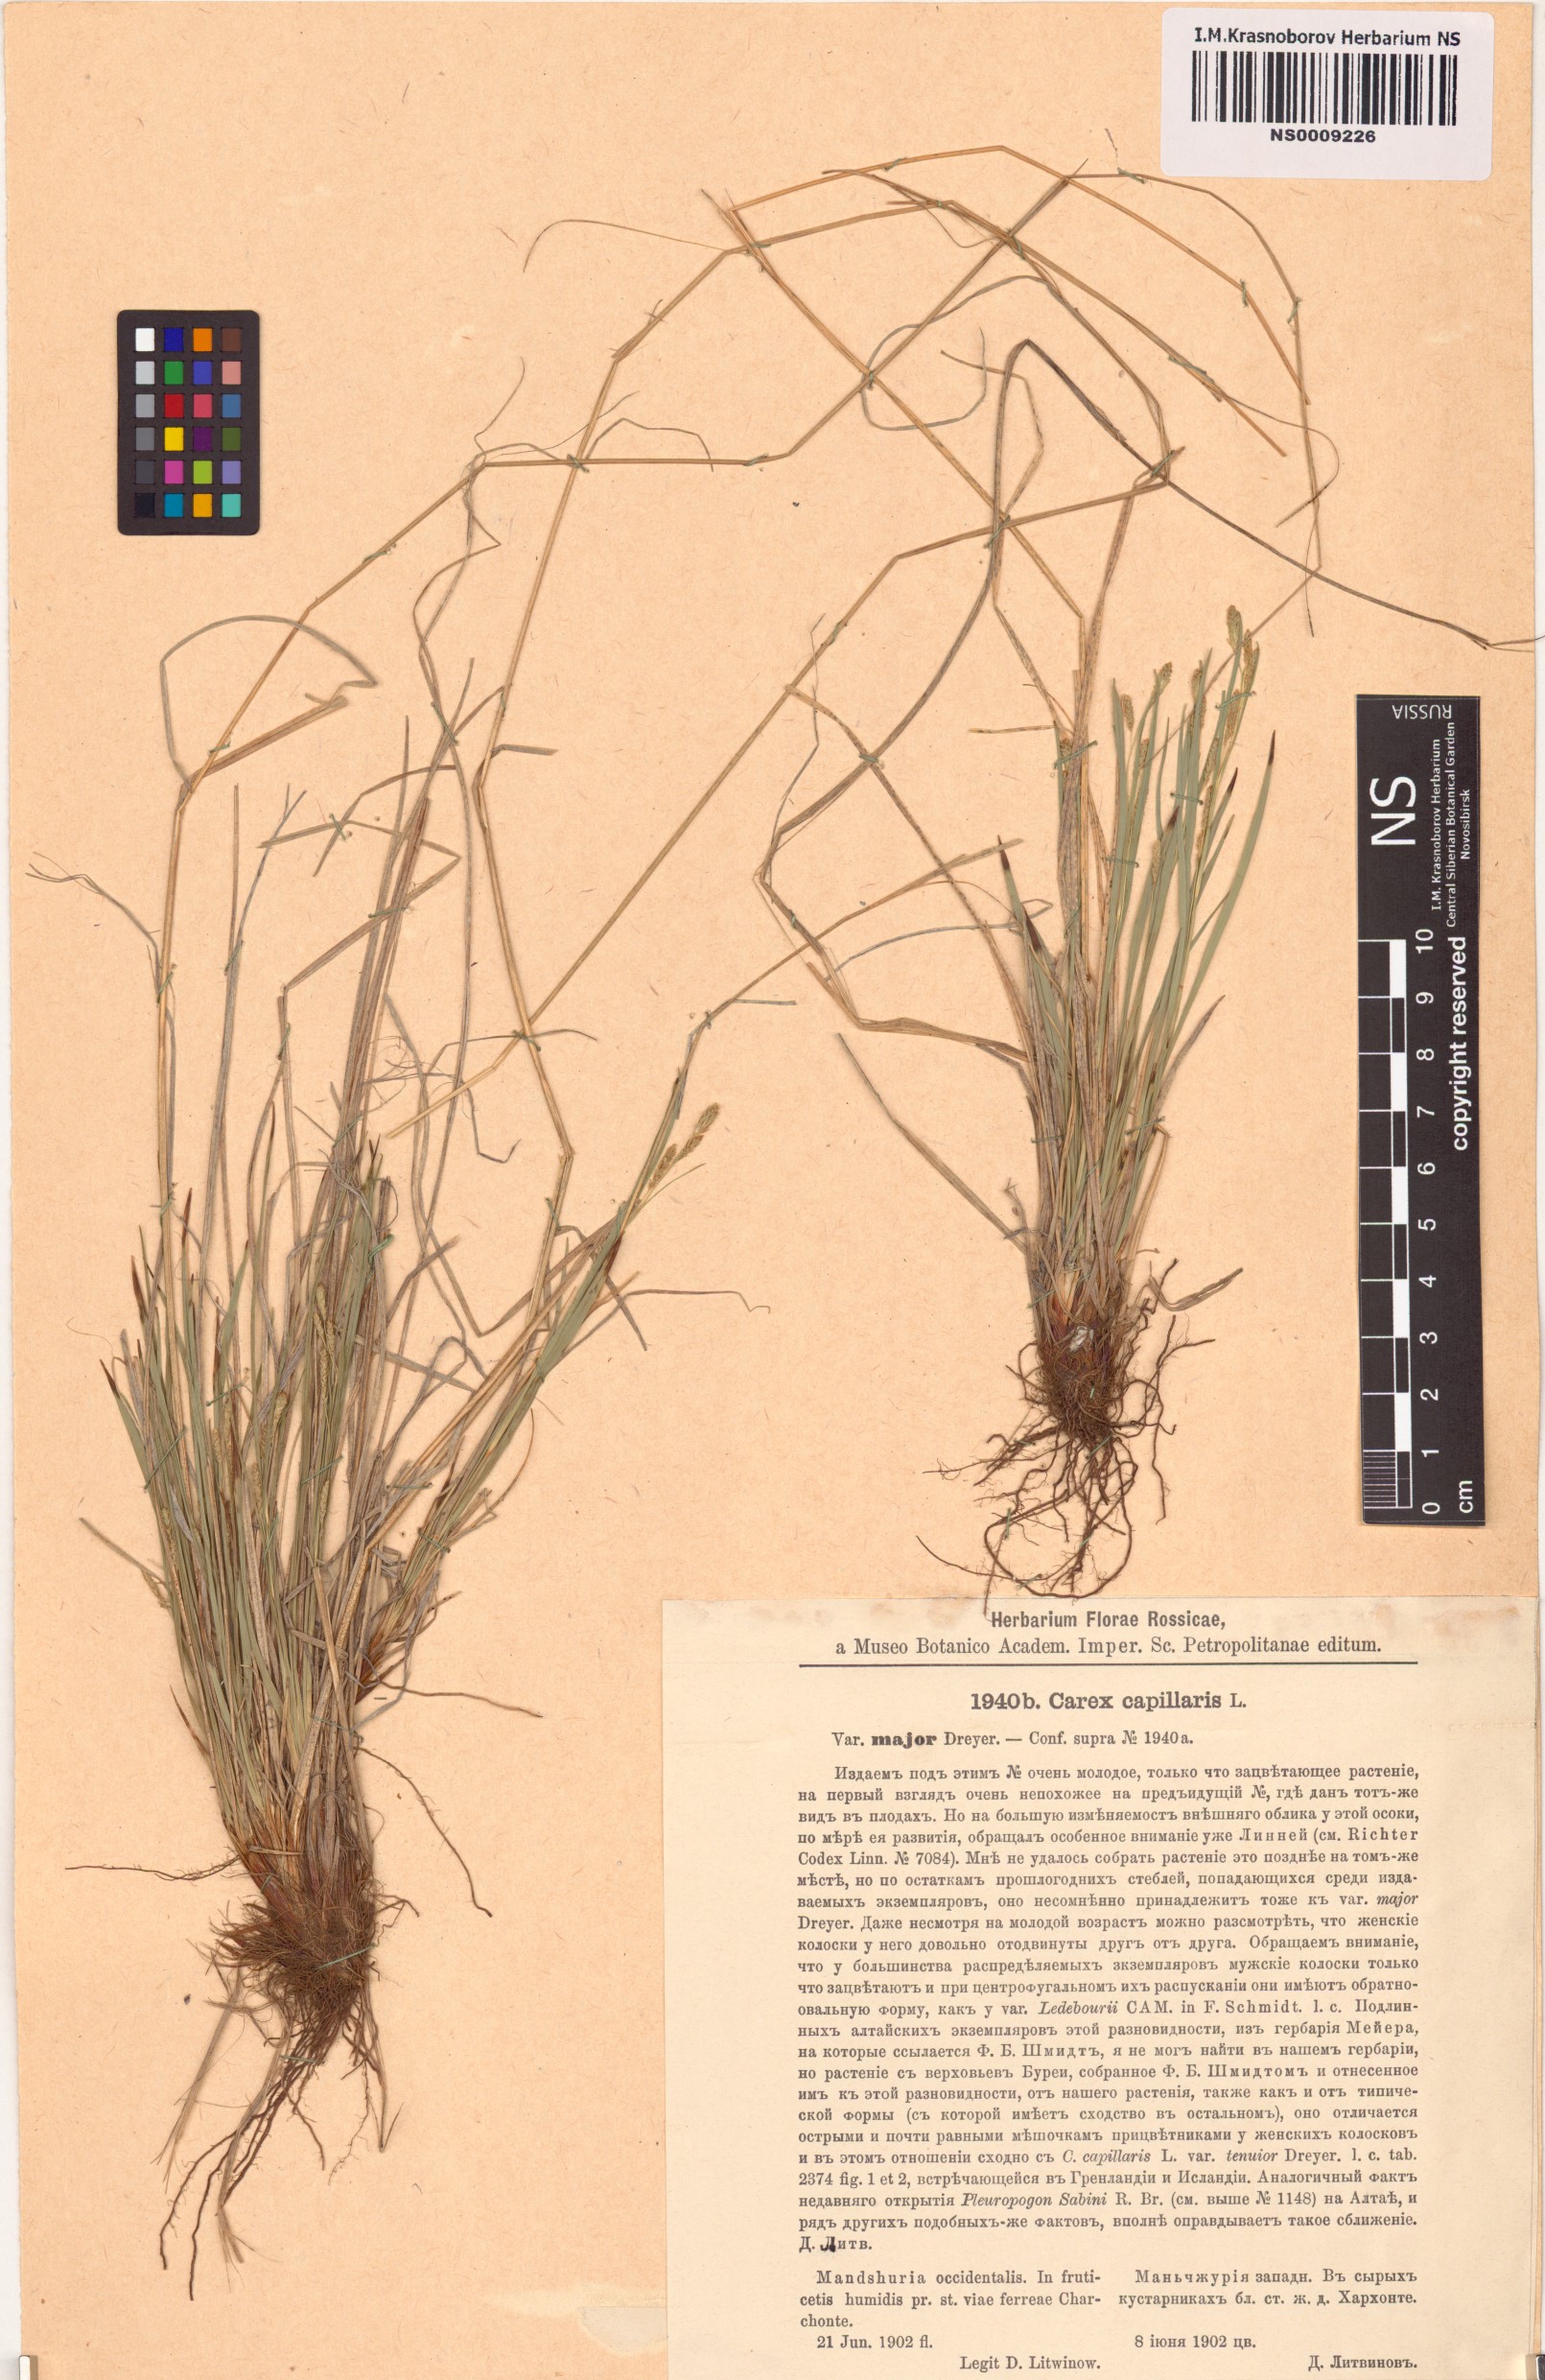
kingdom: Plantae
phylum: Tracheophyta
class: Liliopsida
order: Poales
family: Cyperaceae
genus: Carex
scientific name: Carex capillaris
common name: Hair sedge
